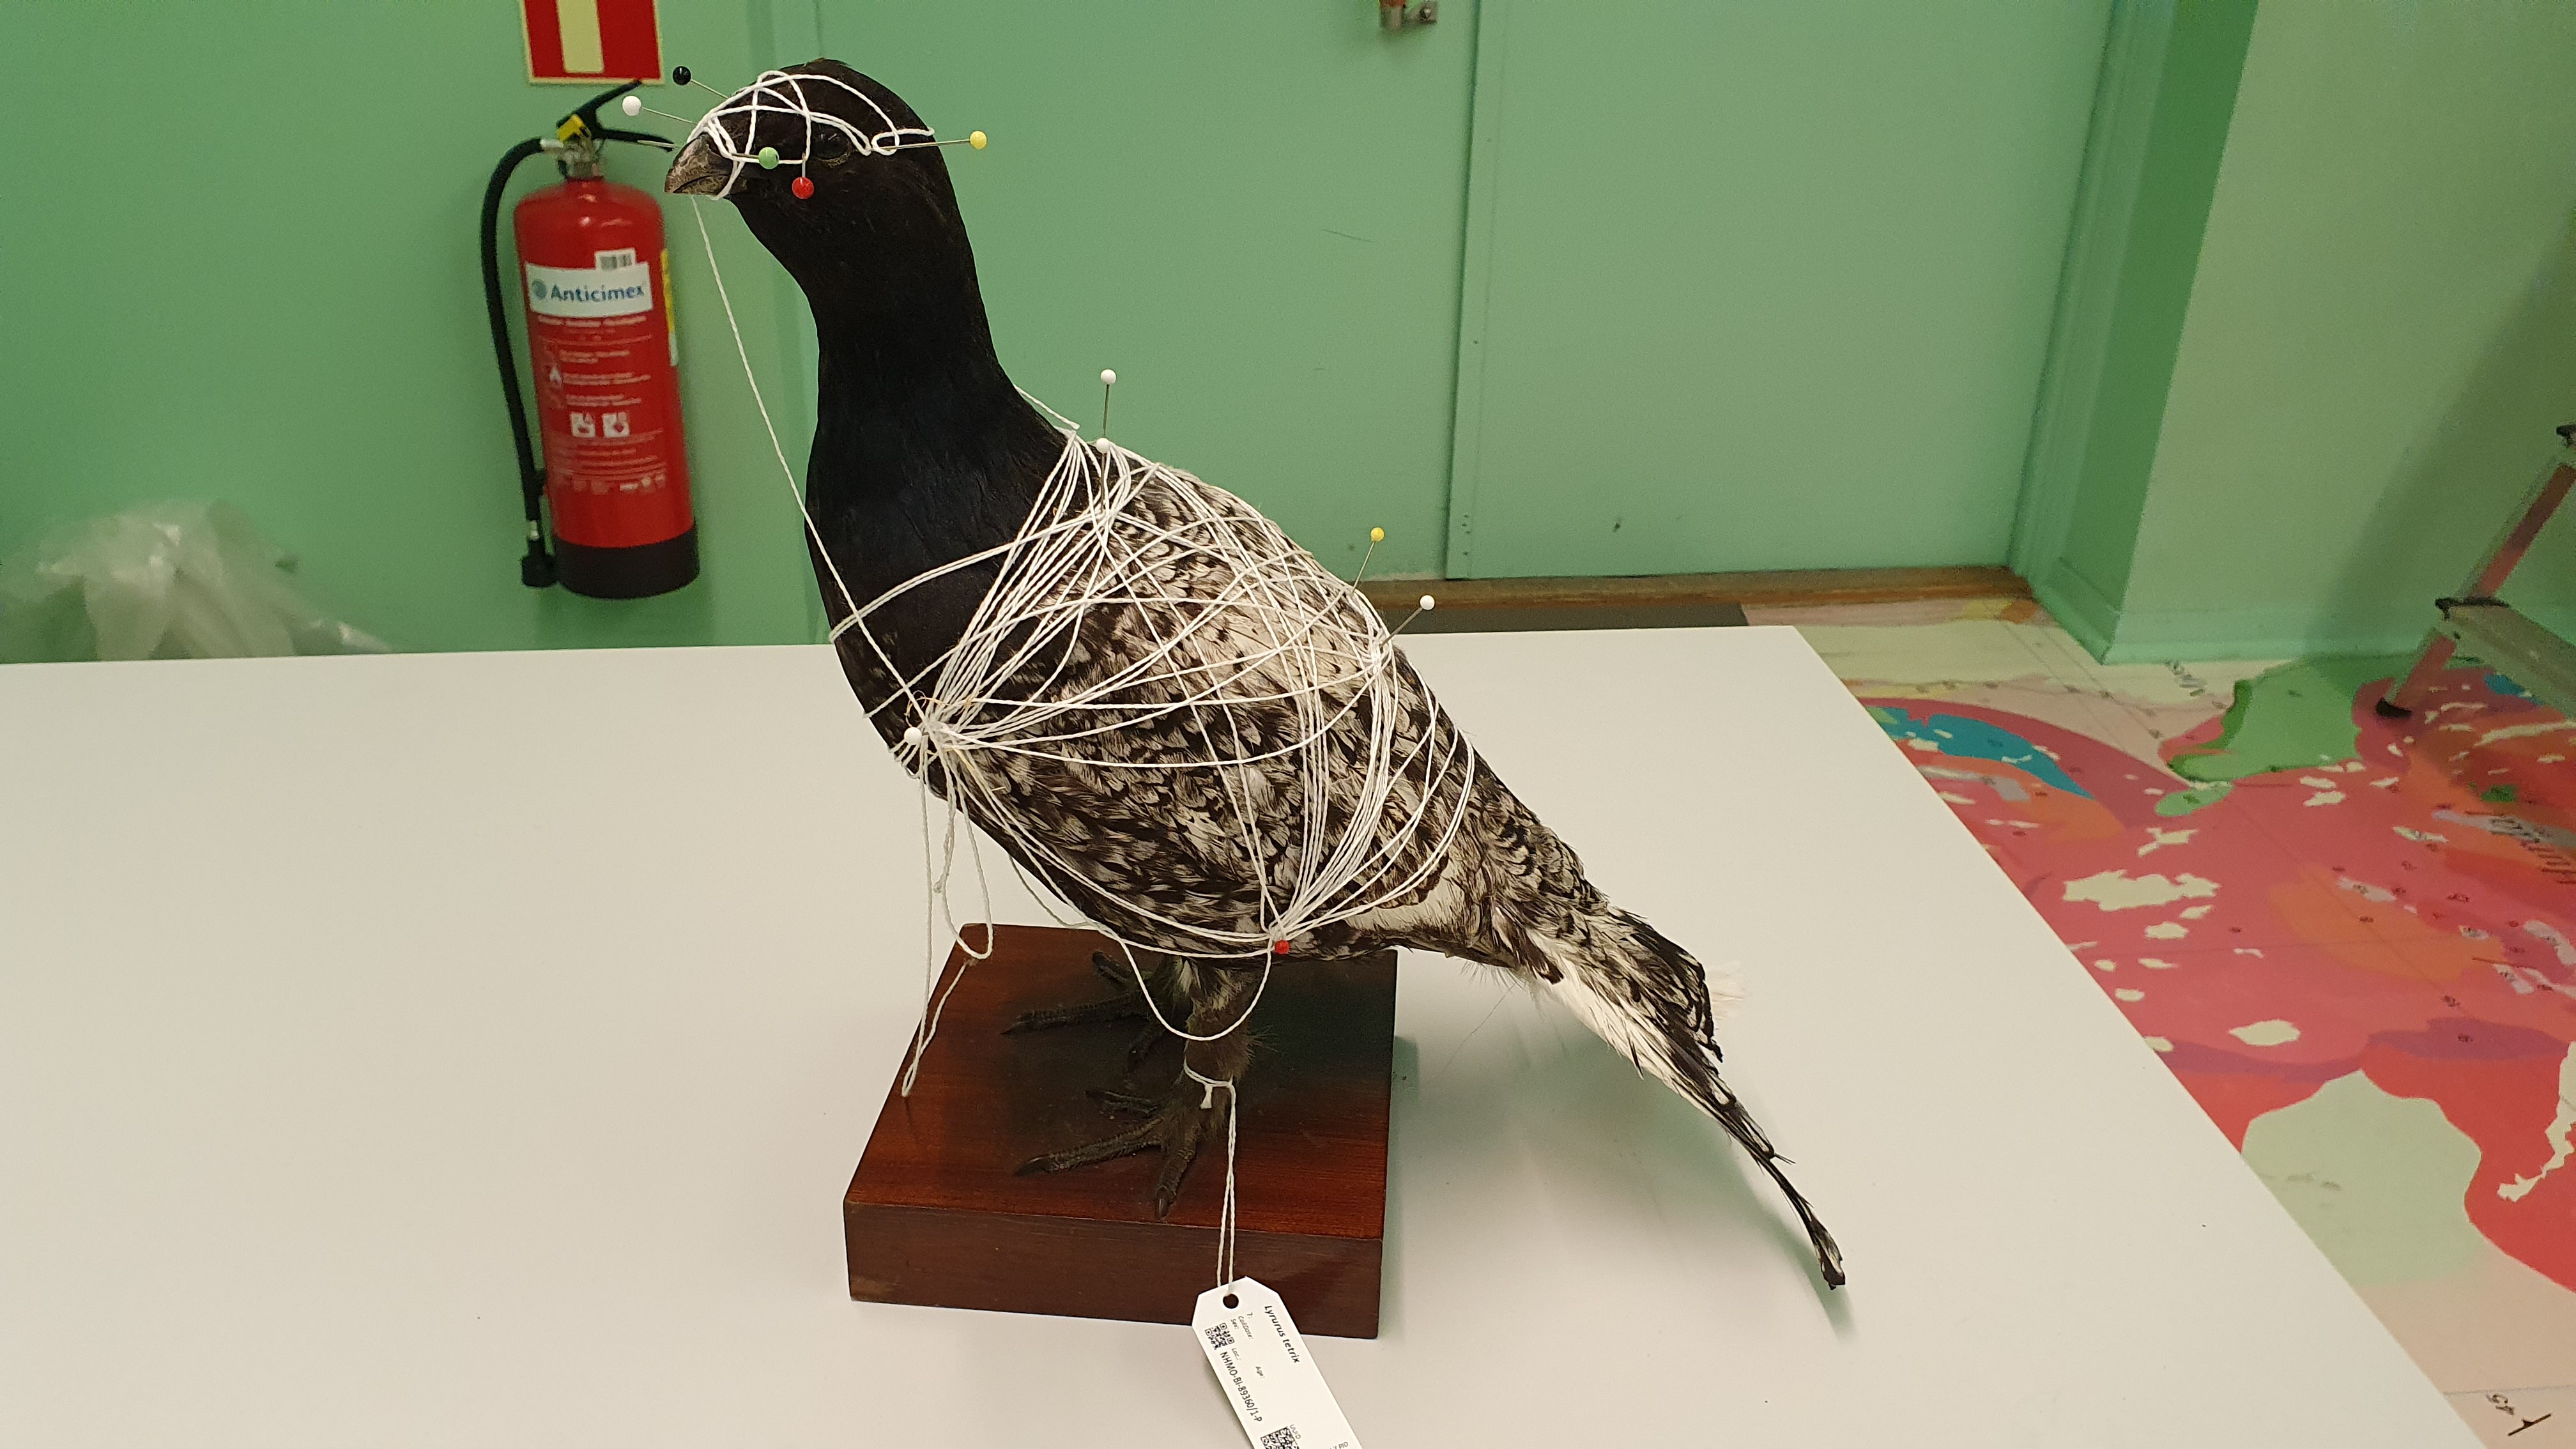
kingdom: Animalia
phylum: Chordata
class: Aves
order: Galliformes
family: Phasianidae
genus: Lyrurus
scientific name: Lyrurus tetrix
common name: Black grouse
